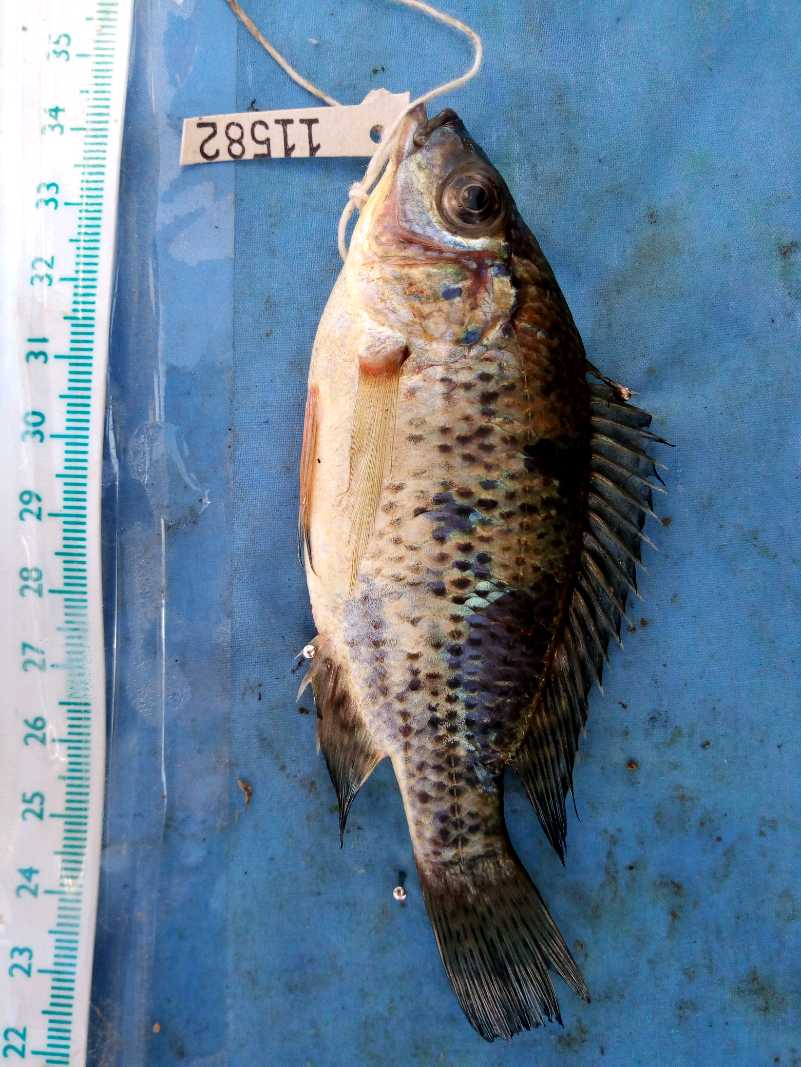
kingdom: Animalia
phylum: Chordata
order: Perciformes
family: Cichlidae
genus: Oreochromis
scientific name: Oreochromis jipe
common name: Jipe tilapia
